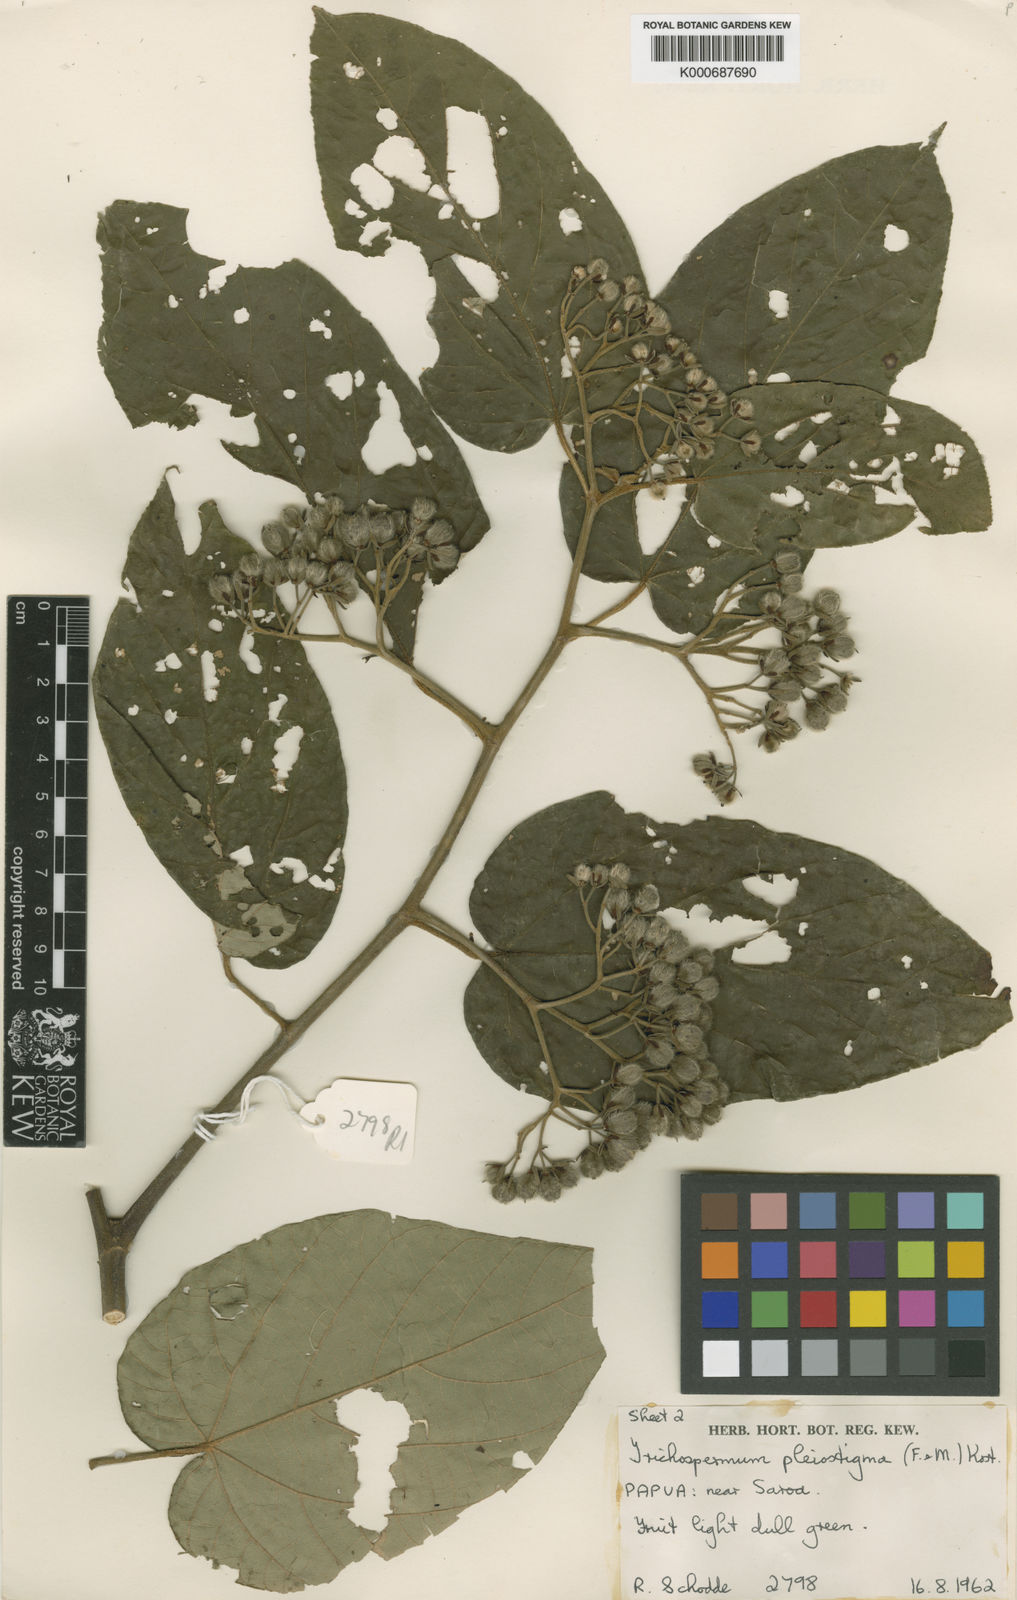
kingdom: Plantae
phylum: Tracheophyta
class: Magnoliopsida
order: Malvales
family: Malvaceae
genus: Trichospermum
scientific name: Trichospermum pleiostigma
